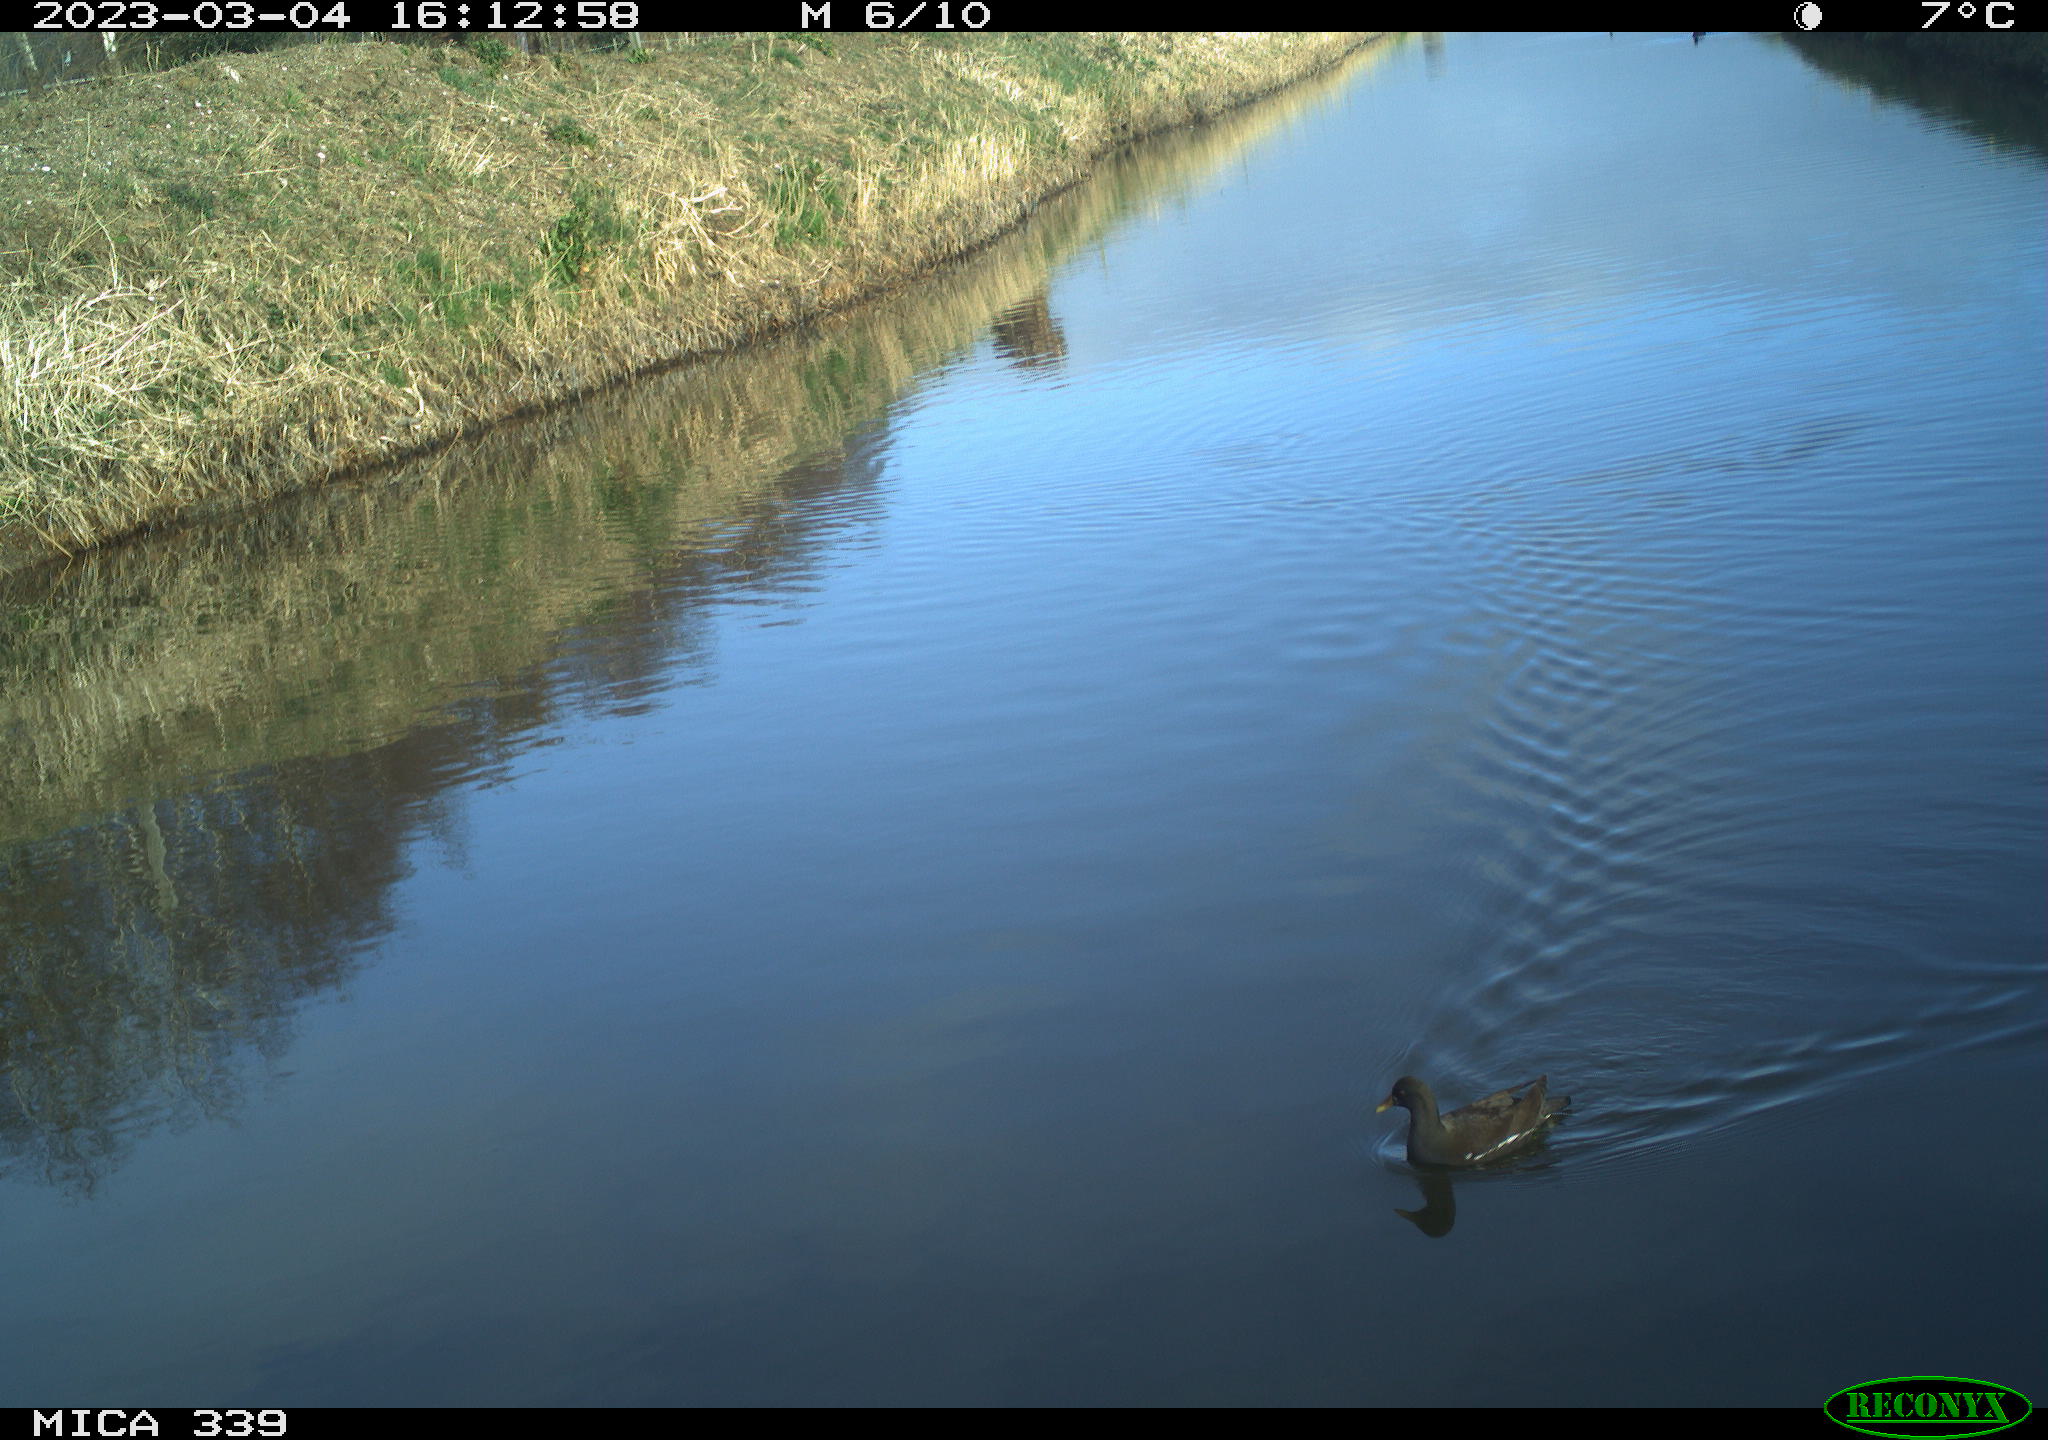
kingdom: Animalia
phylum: Chordata
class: Aves
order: Gruiformes
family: Rallidae
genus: Gallinula
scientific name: Gallinula chloropus
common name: Common moorhen
